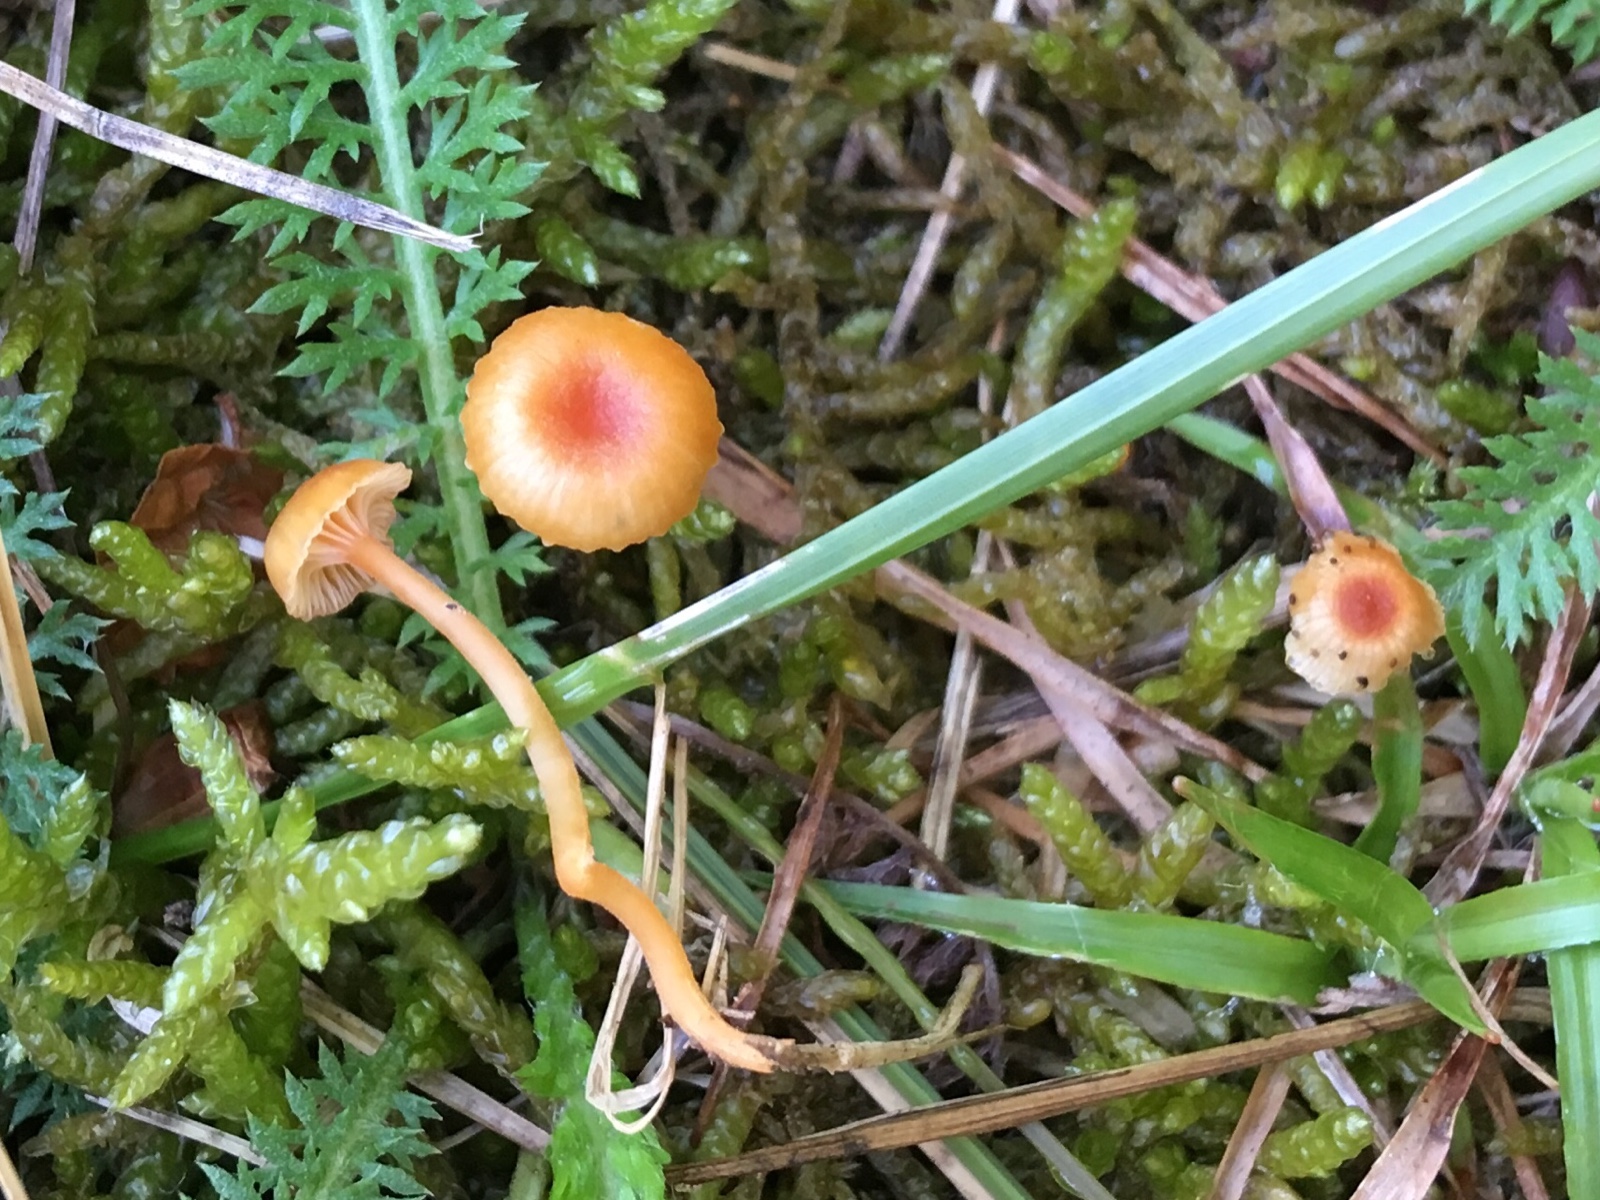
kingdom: Fungi
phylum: Basidiomycota
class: Agaricomycetes
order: Hymenochaetales
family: Rickenellaceae
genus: Rickenella
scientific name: Rickenella fibula
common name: orange mosnavlehat
